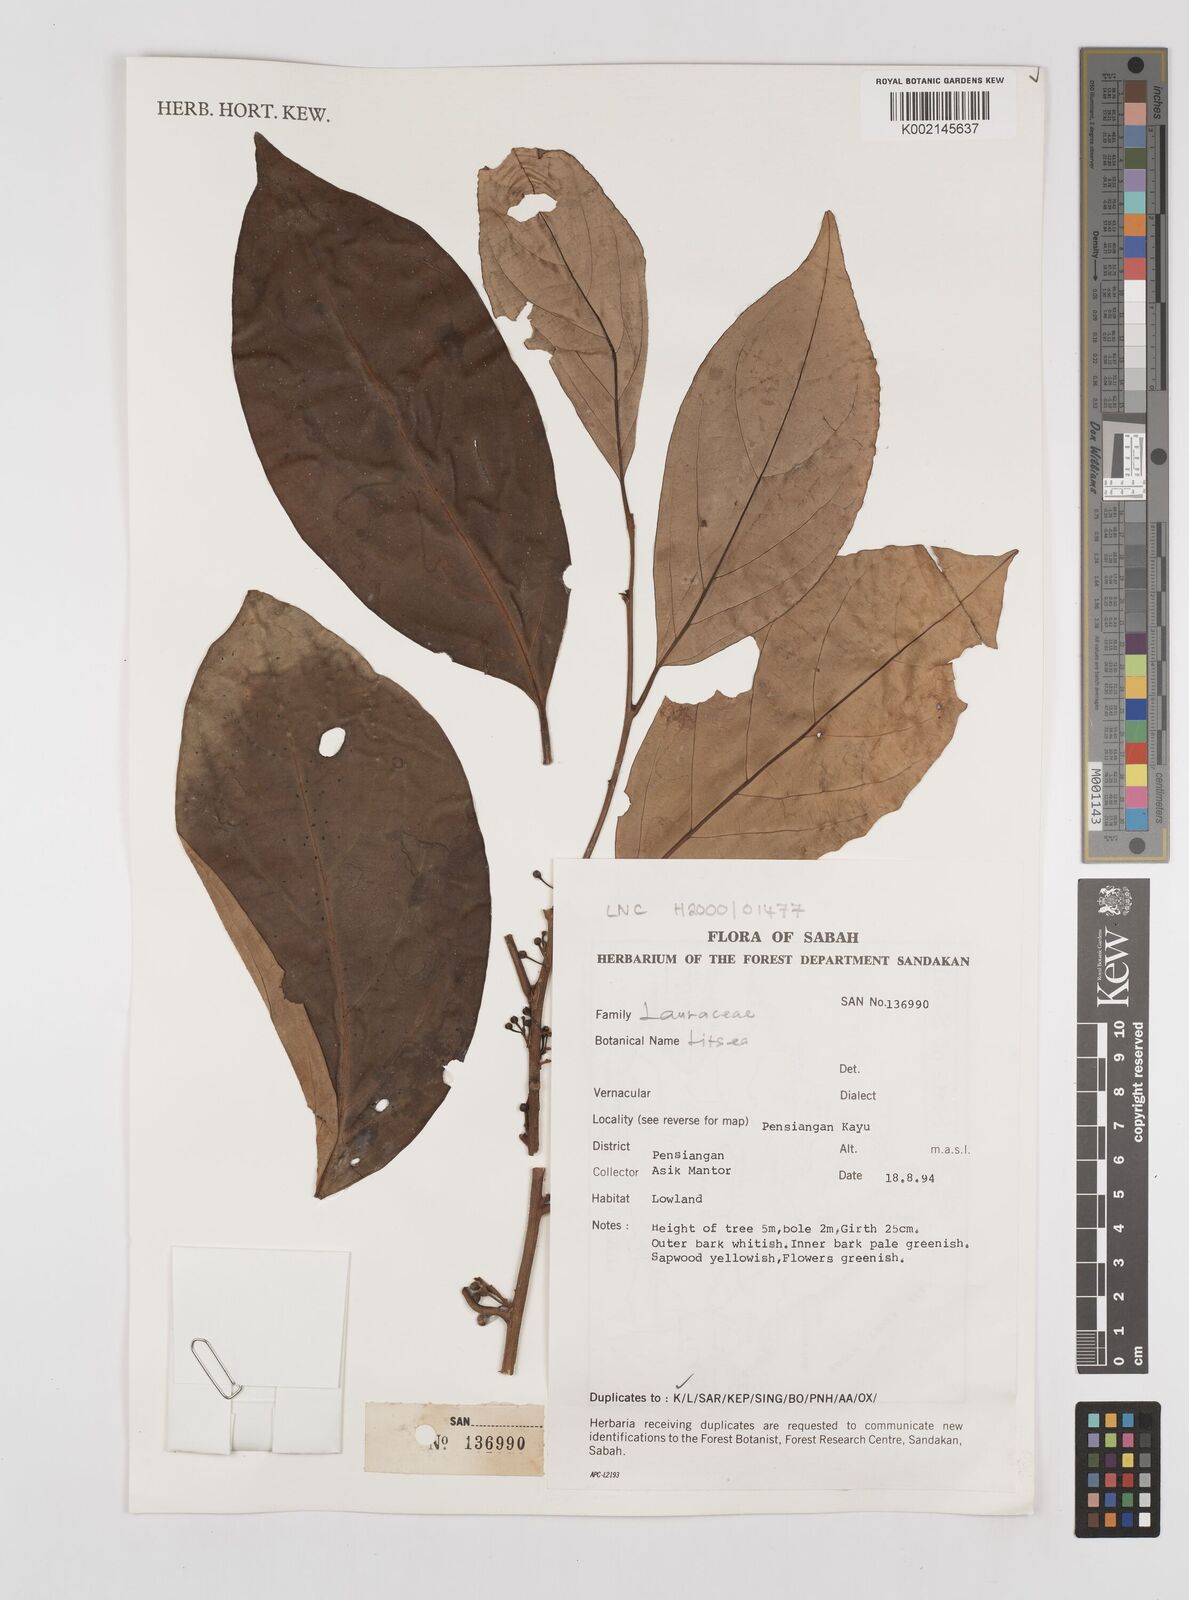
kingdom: Plantae
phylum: Tracheophyta
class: Magnoliopsida
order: Laurales
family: Lauraceae
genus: Litsea
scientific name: Litsea
